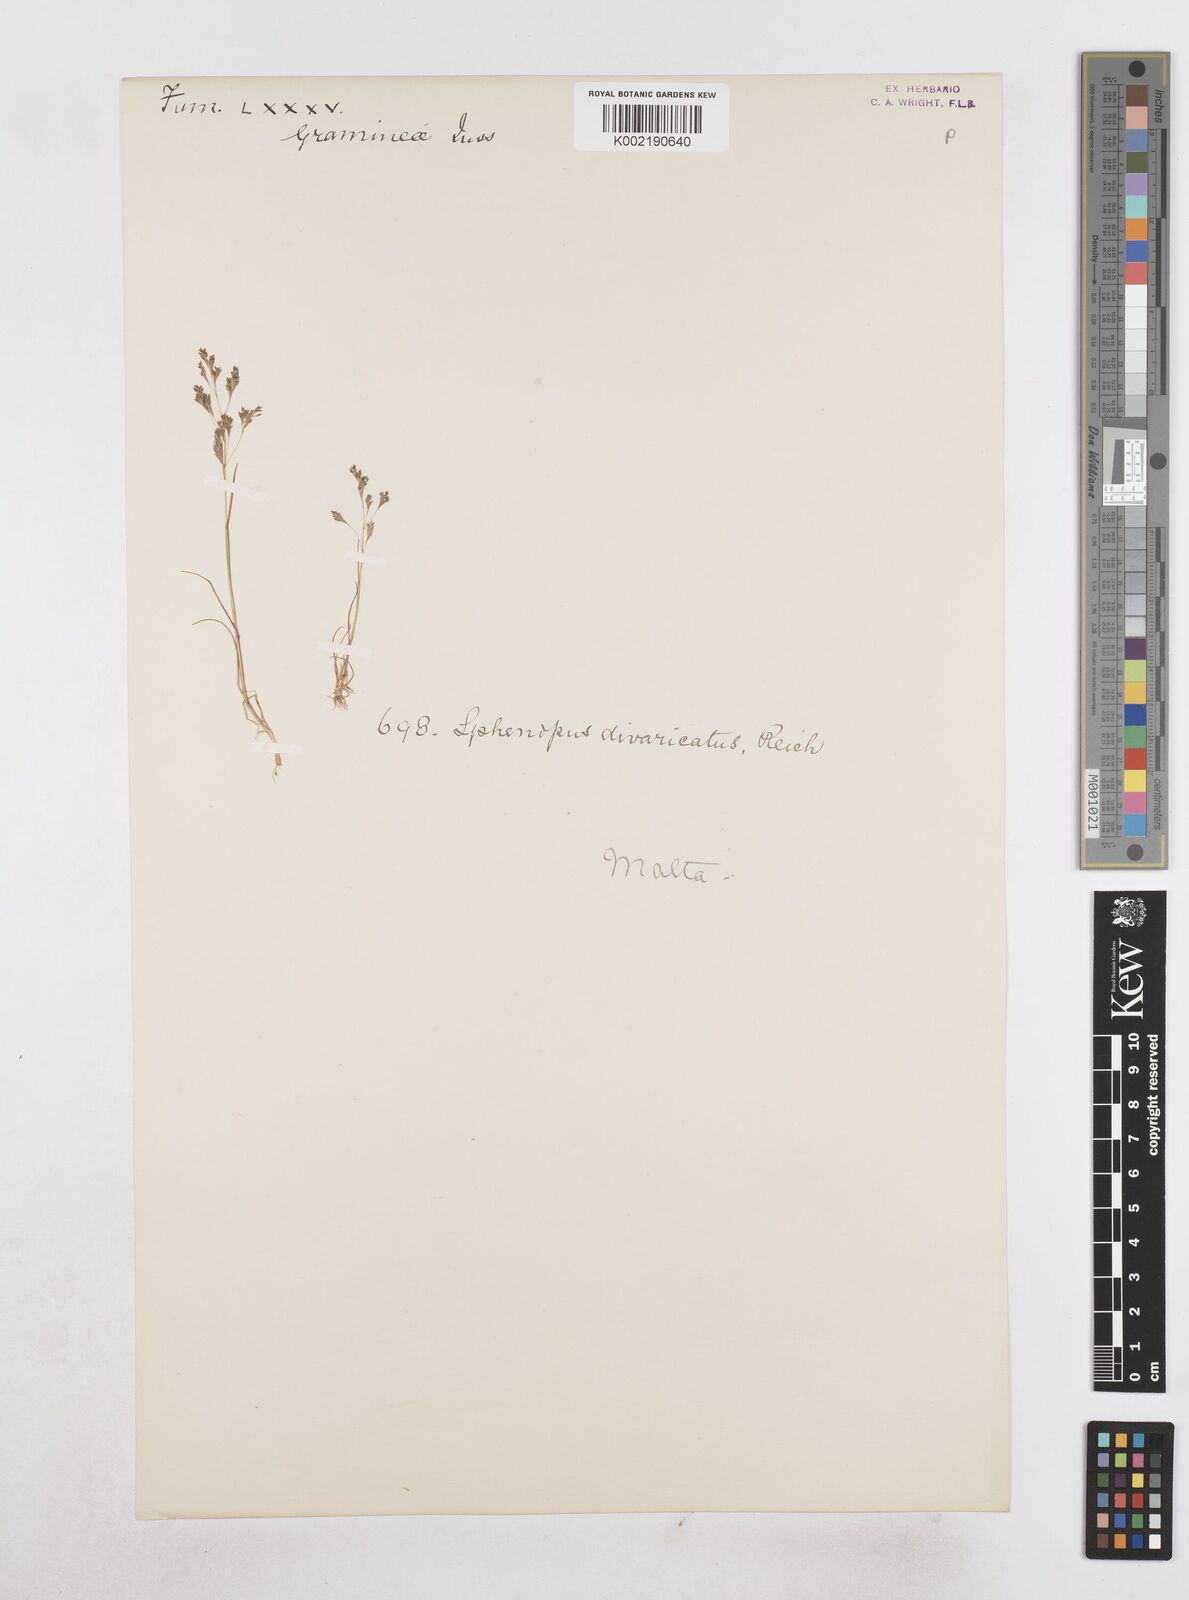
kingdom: Plantae
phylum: Tracheophyta
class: Liliopsida
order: Poales
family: Poaceae
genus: Sphenopus
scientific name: Sphenopus divaricatus
